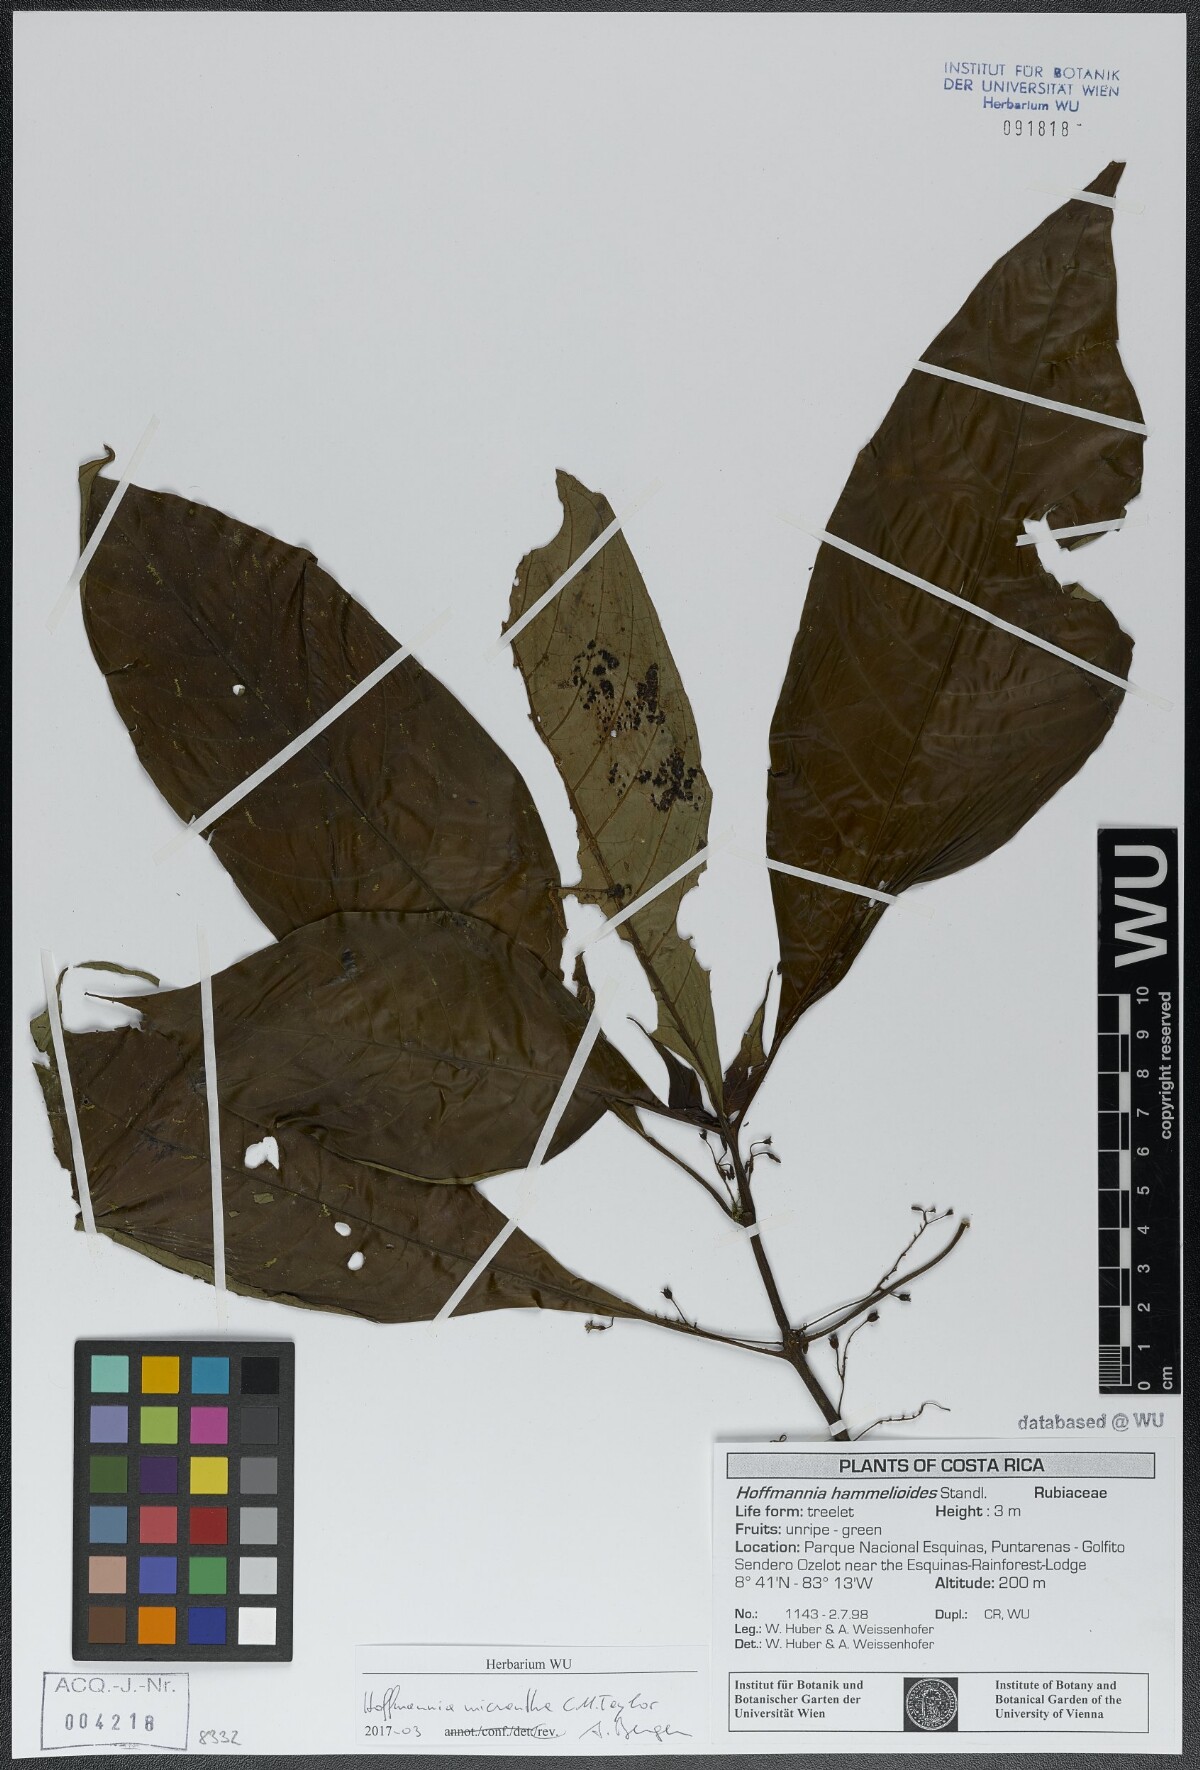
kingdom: Plantae
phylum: Tracheophyta
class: Magnoliopsida
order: Gentianales
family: Rubiaceae
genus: Hoffmannia
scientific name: Hoffmannia micrantha
